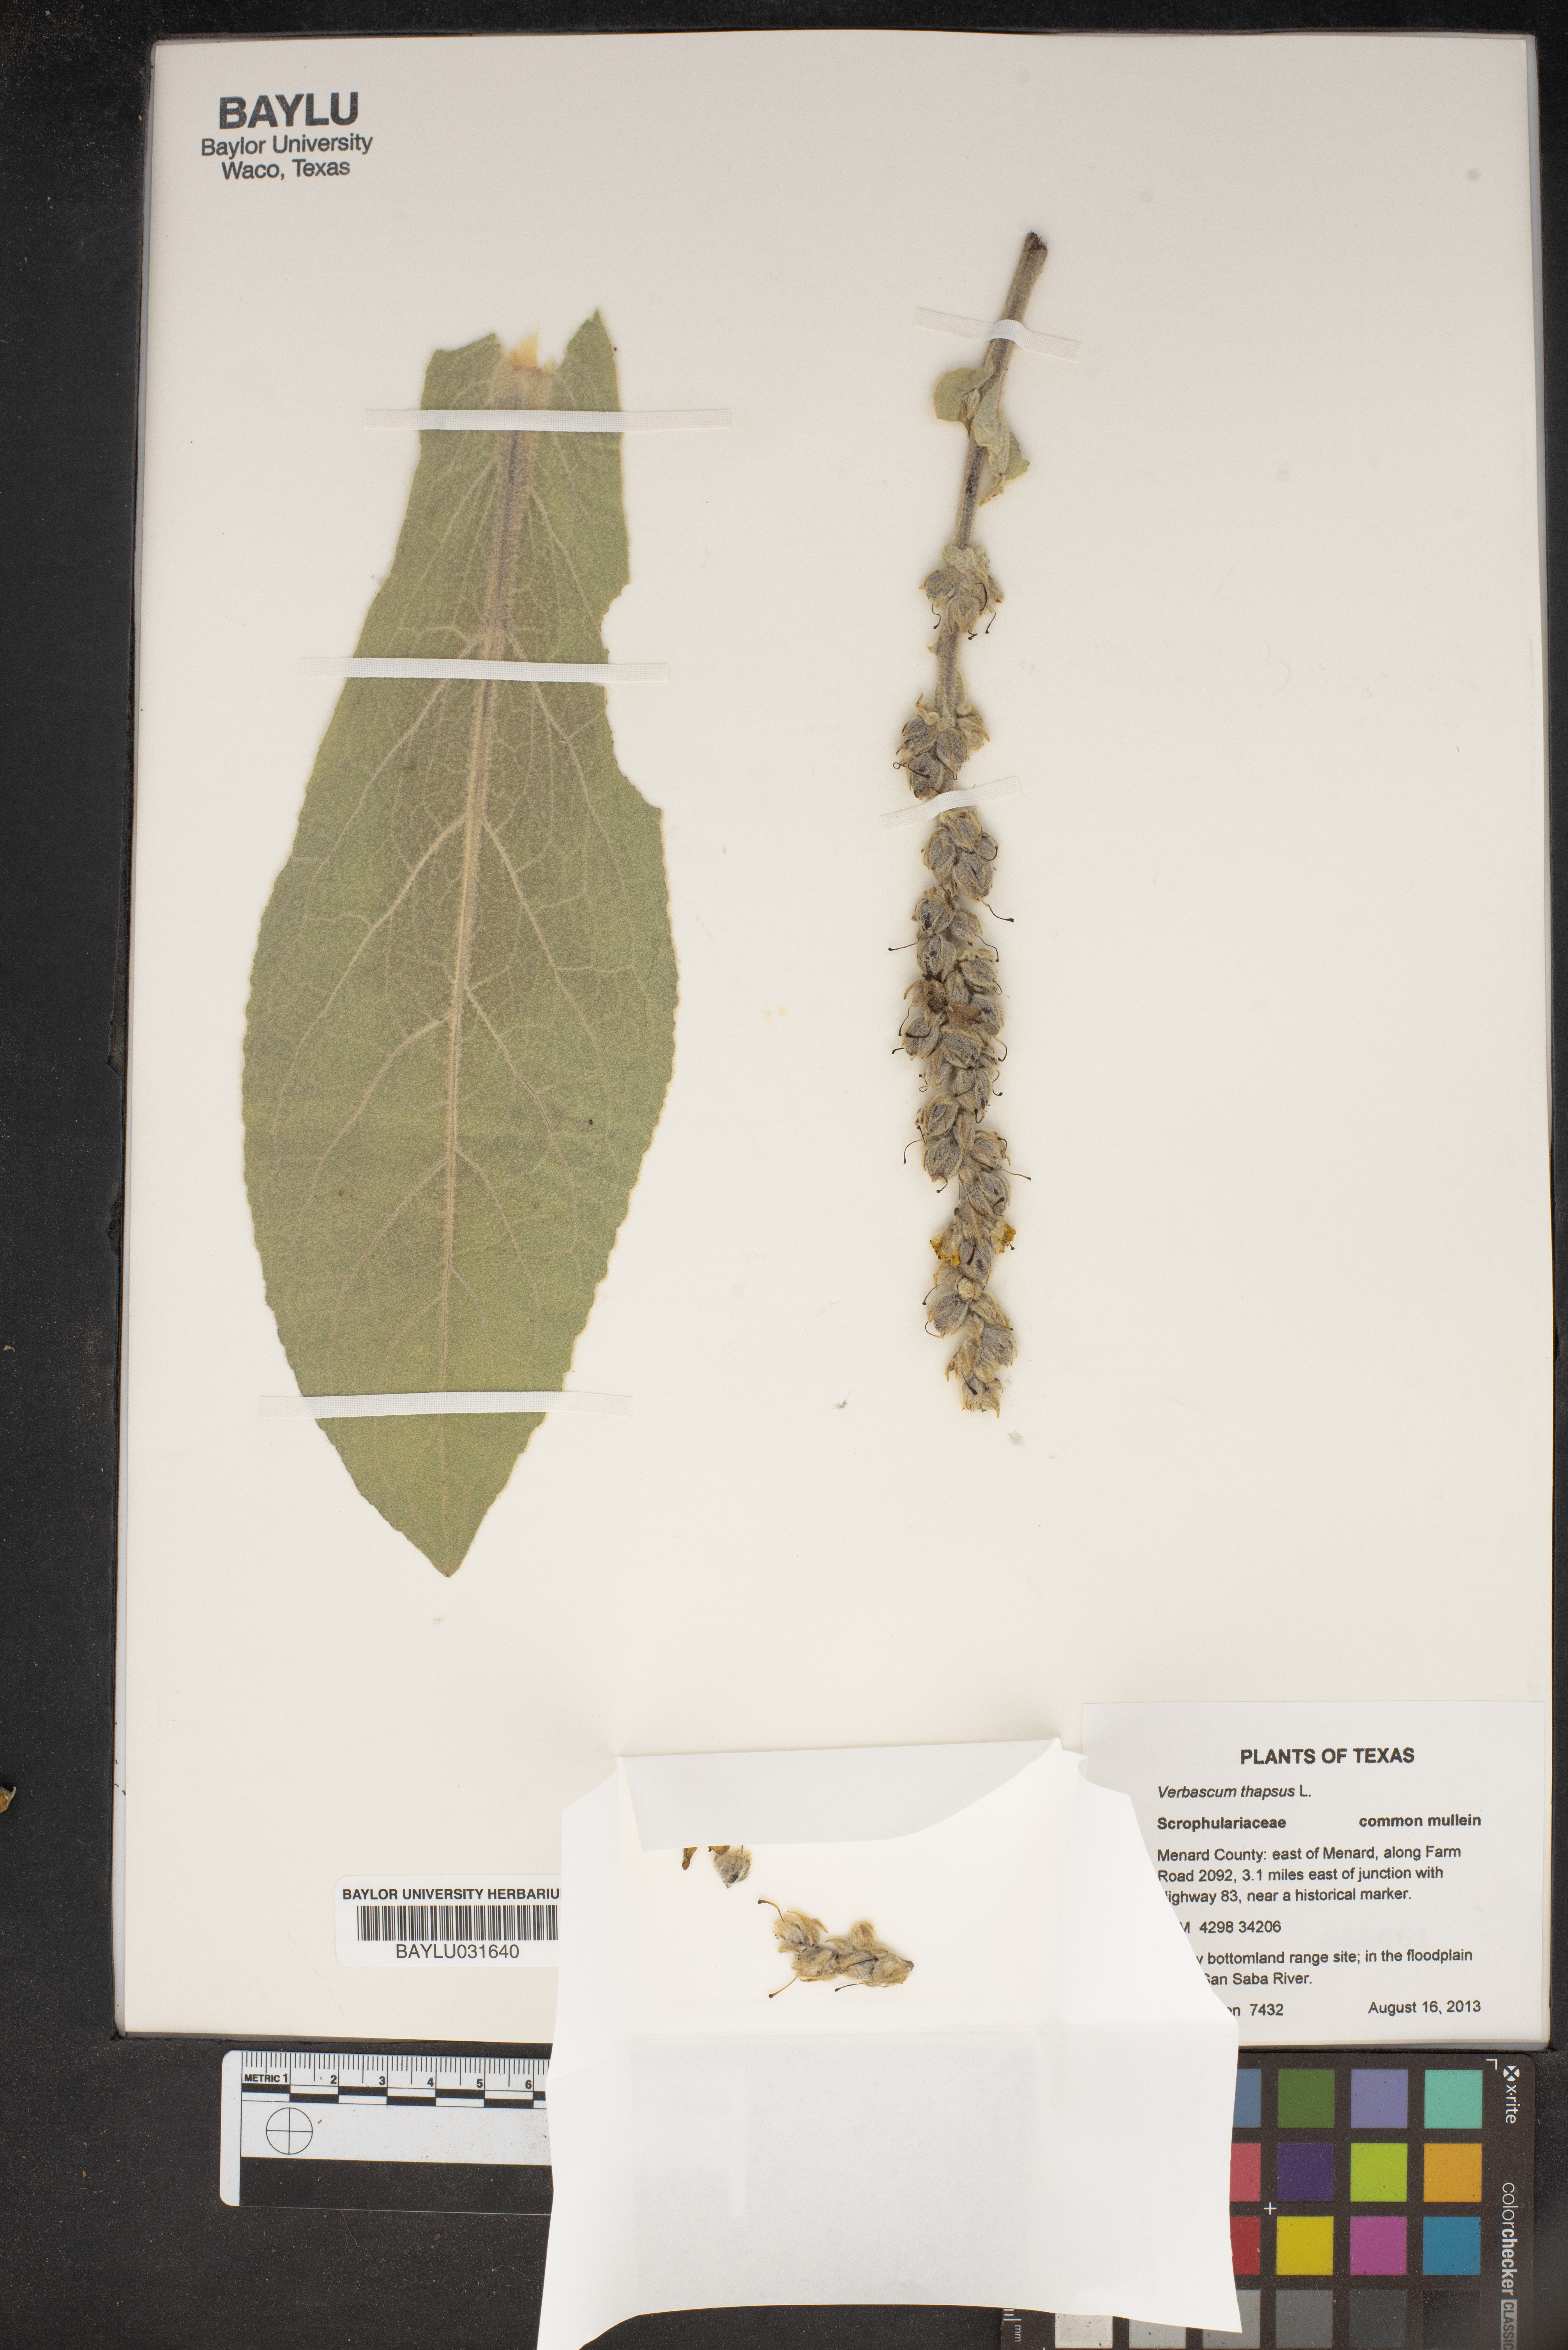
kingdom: Plantae
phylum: Tracheophyta
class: Magnoliopsida
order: Lamiales
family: Scrophulariaceae
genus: Verbascum
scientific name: Verbascum thapsus
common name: Common mullein
